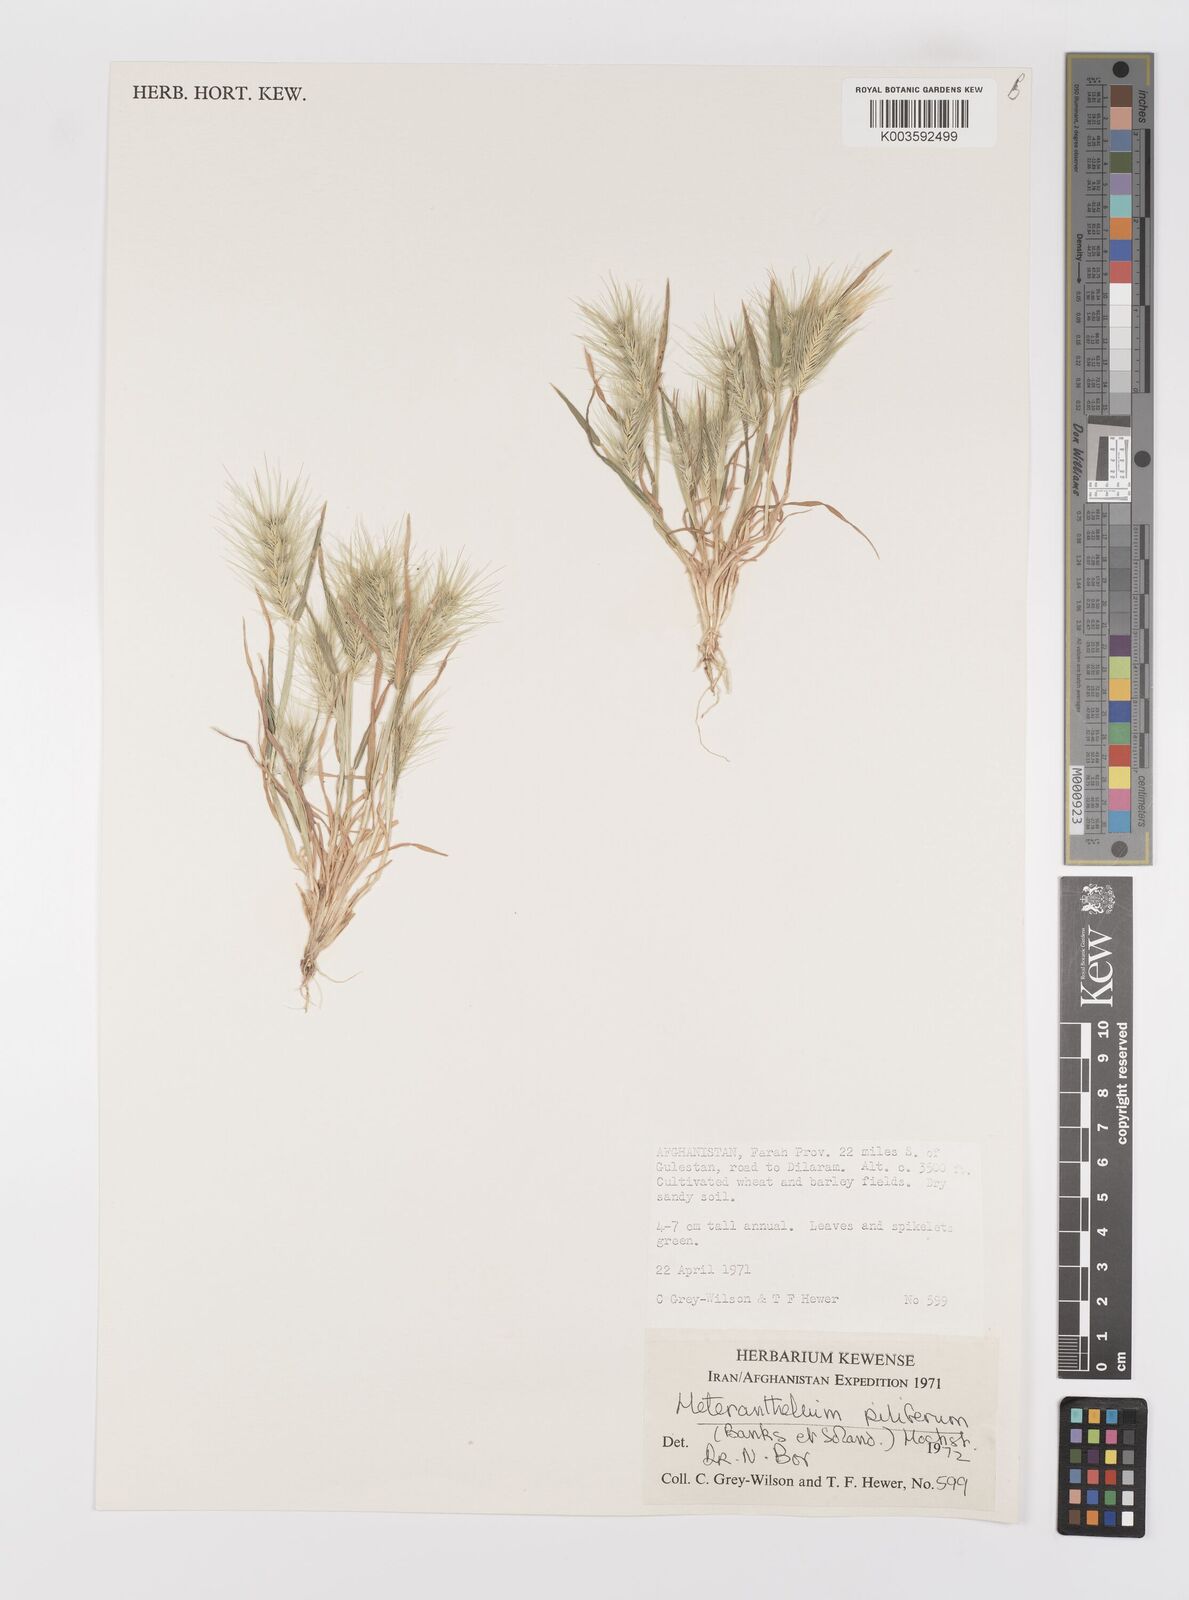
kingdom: Plantae
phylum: Tracheophyta
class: Liliopsida
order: Poales
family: Poaceae
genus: Heteranthelium
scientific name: Heteranthelium piliferum
